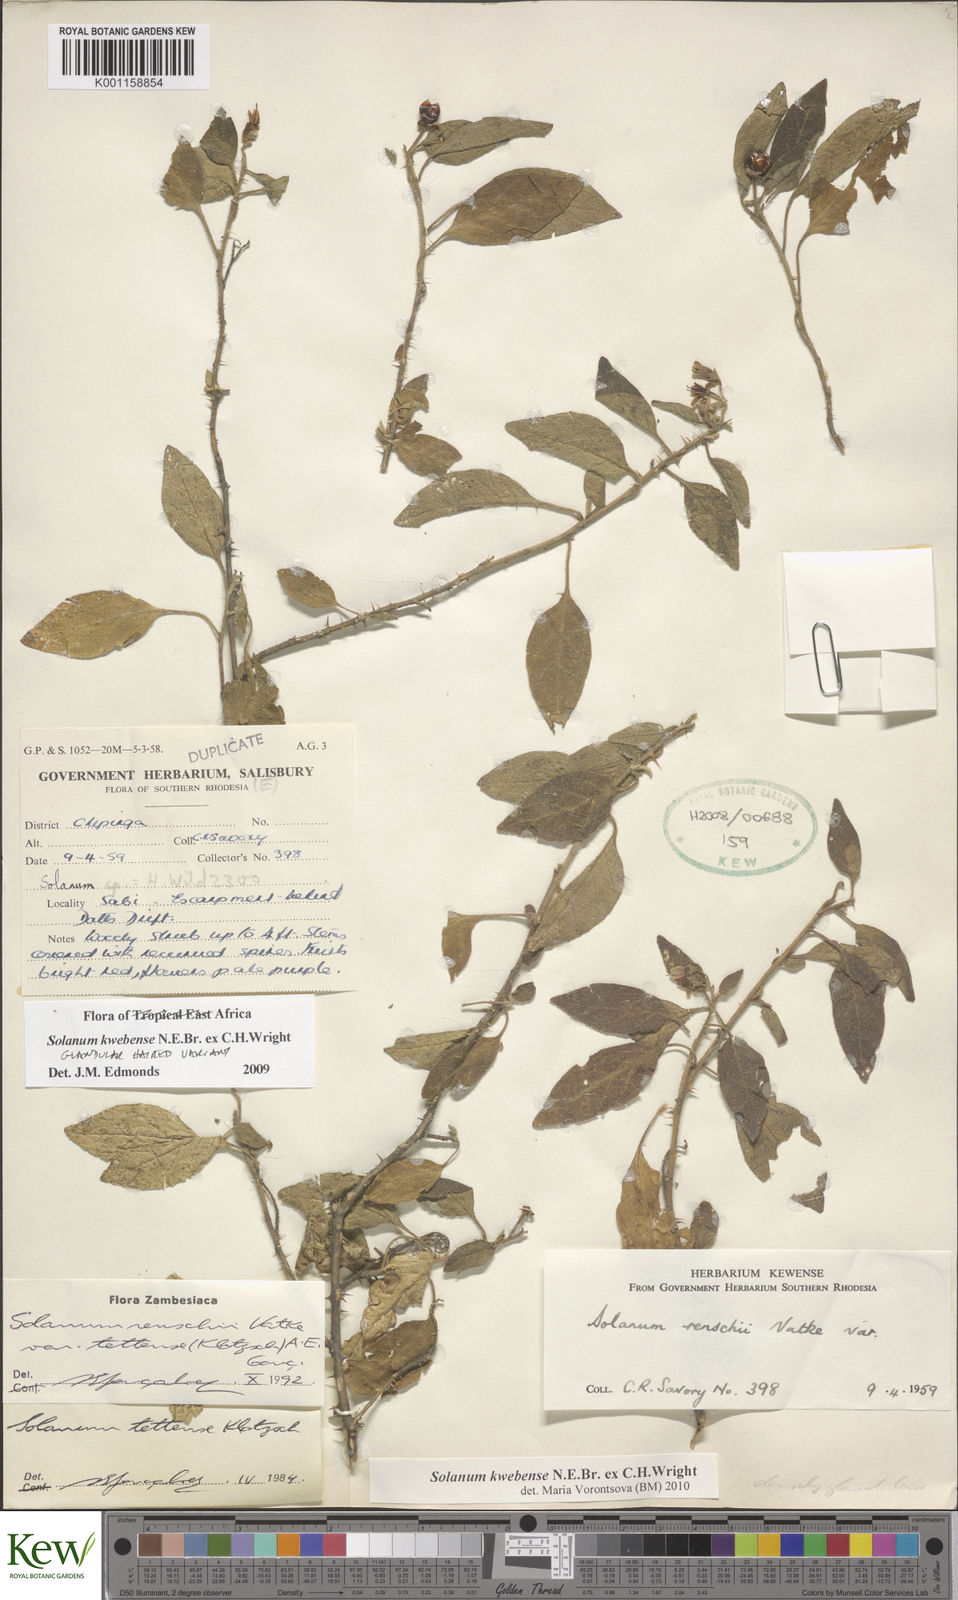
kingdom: Plantae
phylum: Tracheophyta
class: Magnoliopsida
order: Solanales
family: Solanaceae
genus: Solanum
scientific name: Solanum tettense
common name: Mozambique bitter apple
